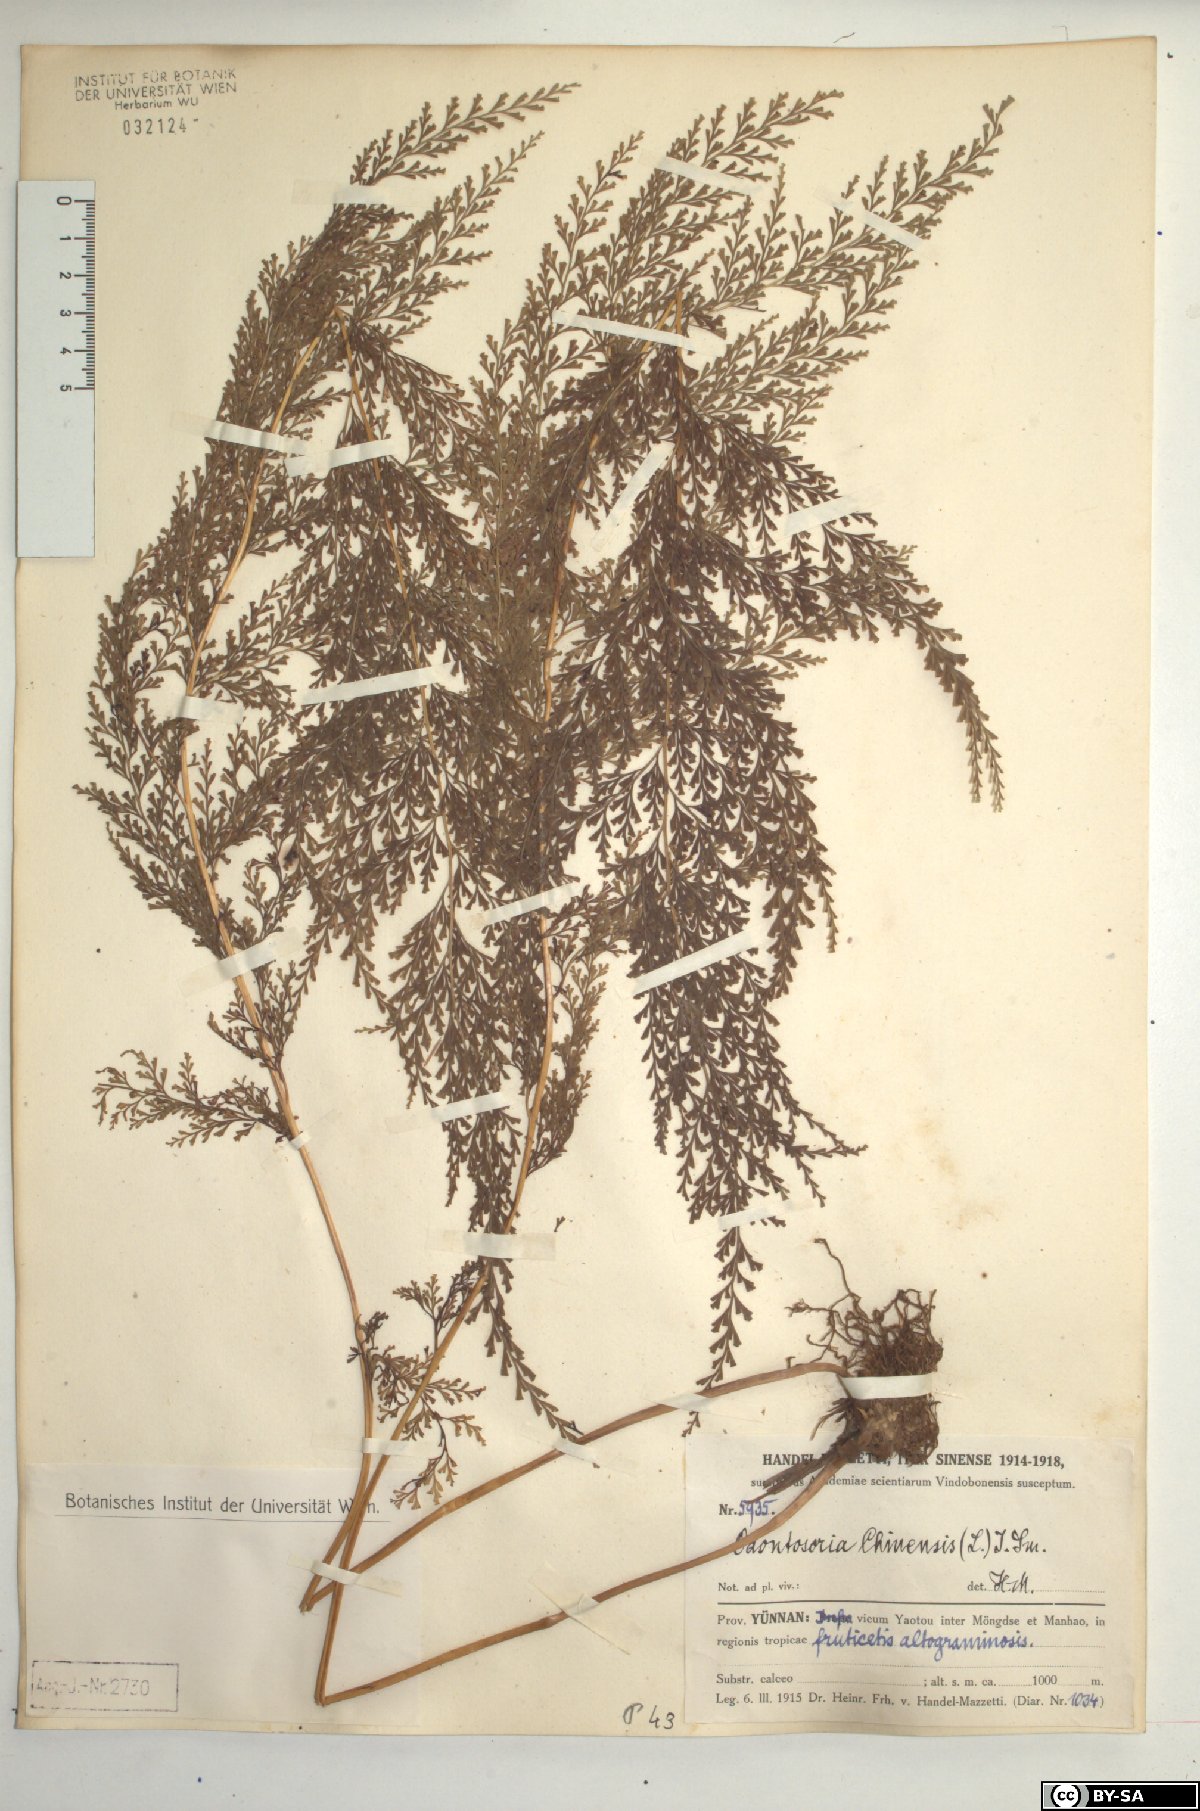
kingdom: Plantae
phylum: Tracheophyta
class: Polypodiopsida
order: Polypodiales
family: Lindsaeaceae
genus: Odontosoria
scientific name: Odontosoria chinensis
